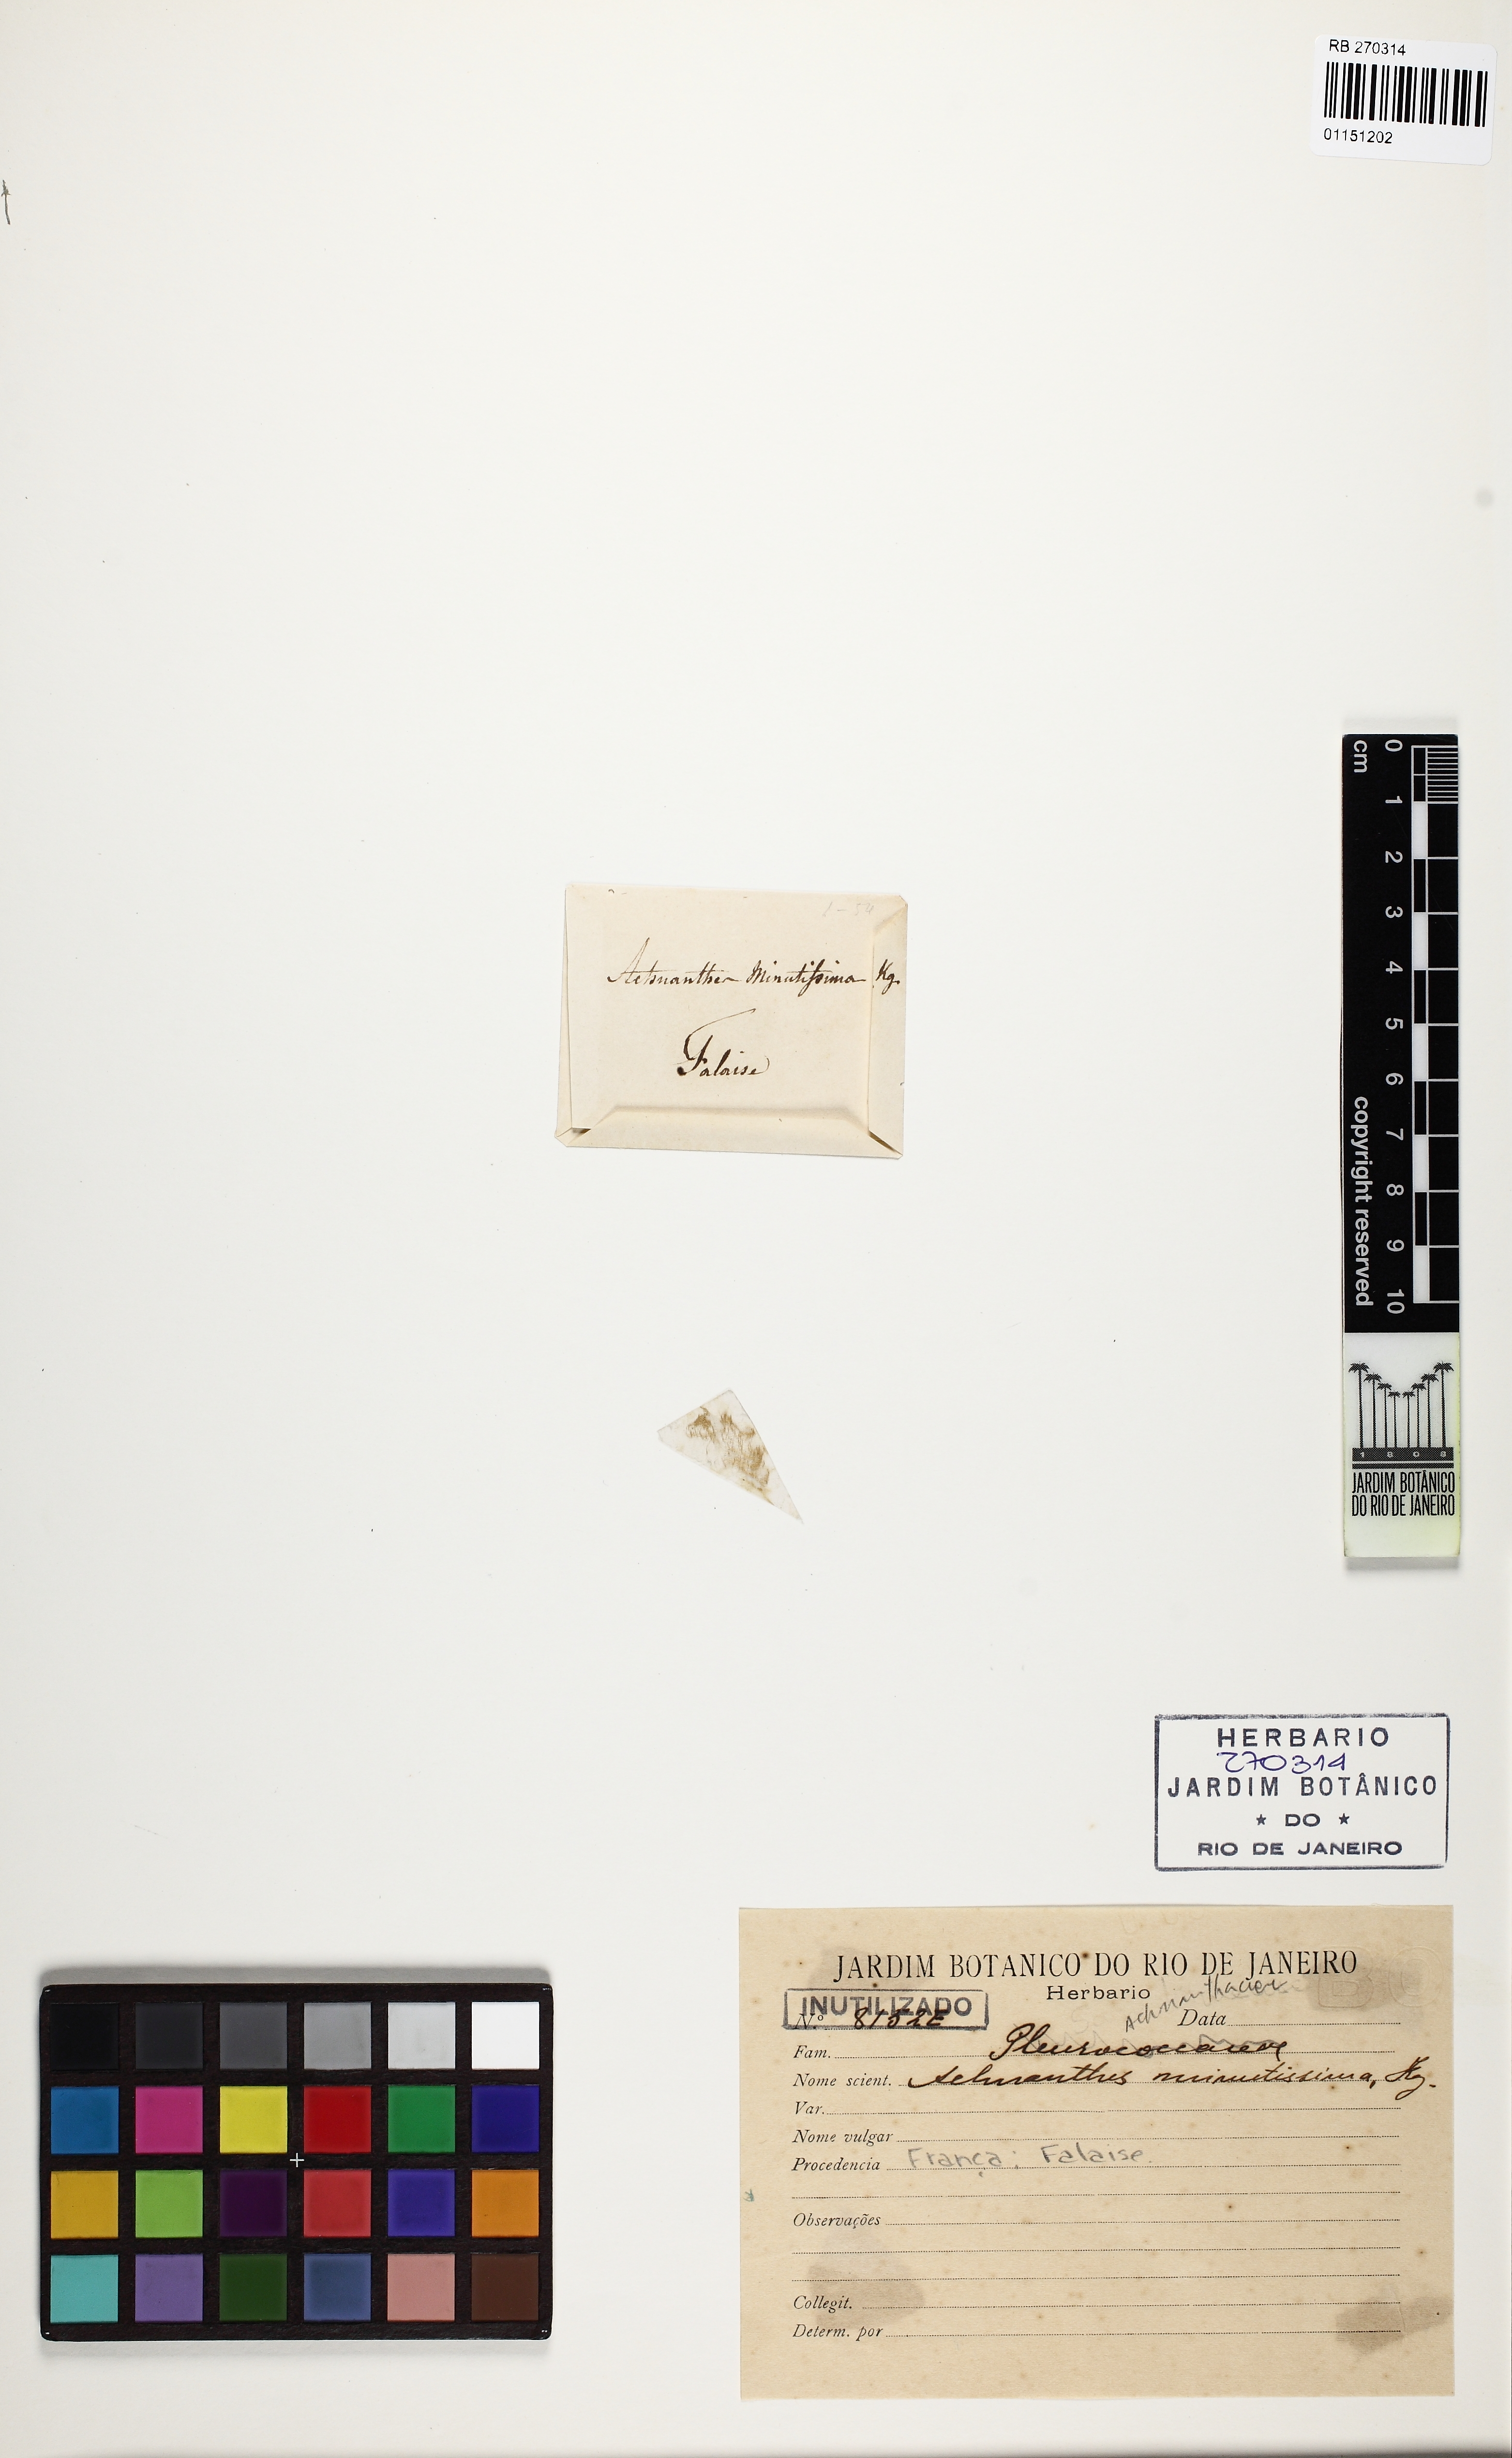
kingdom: Chromista
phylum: Ochrophyta
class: Bacillariophyceae
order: Achnanthales
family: Achnanthaceae
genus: Achnanthes
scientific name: Achnanthes minutissima
